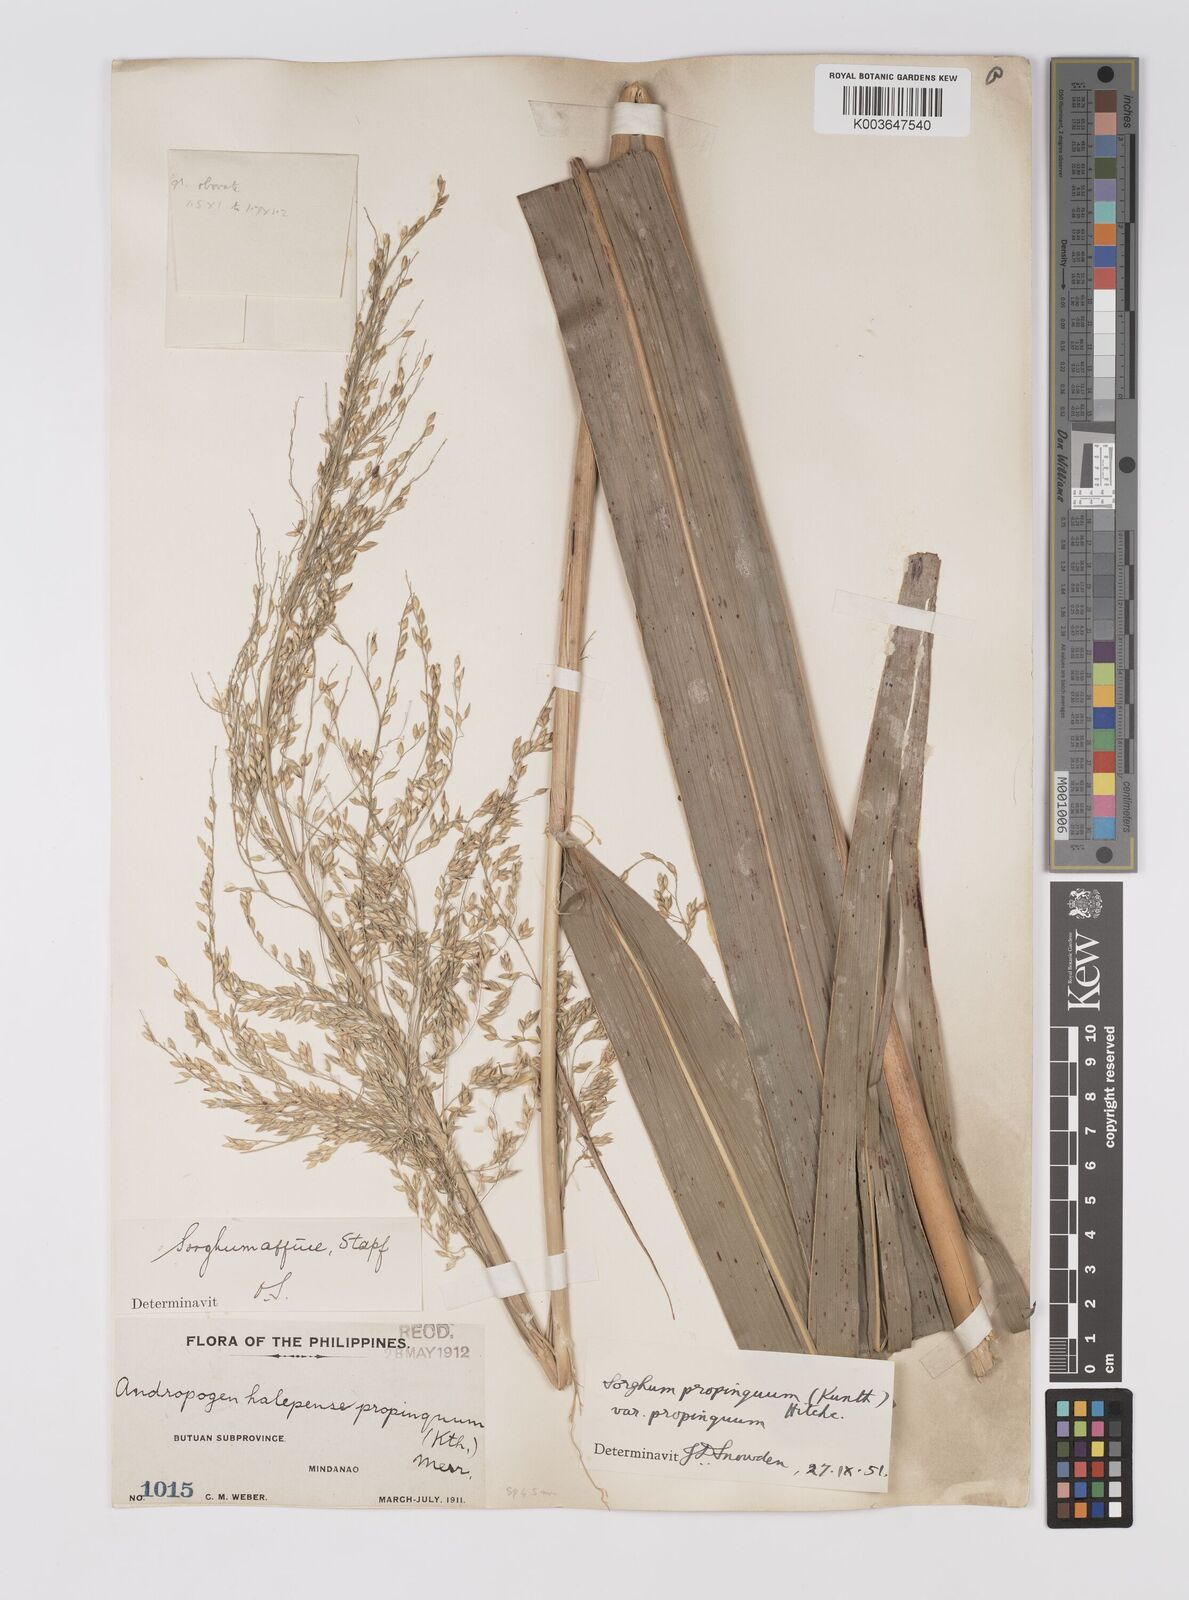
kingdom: Plantae
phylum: Tracheophyta
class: Liliopsida
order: Poales
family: Poaceae
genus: Sorghum
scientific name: Sorghum propinquum
